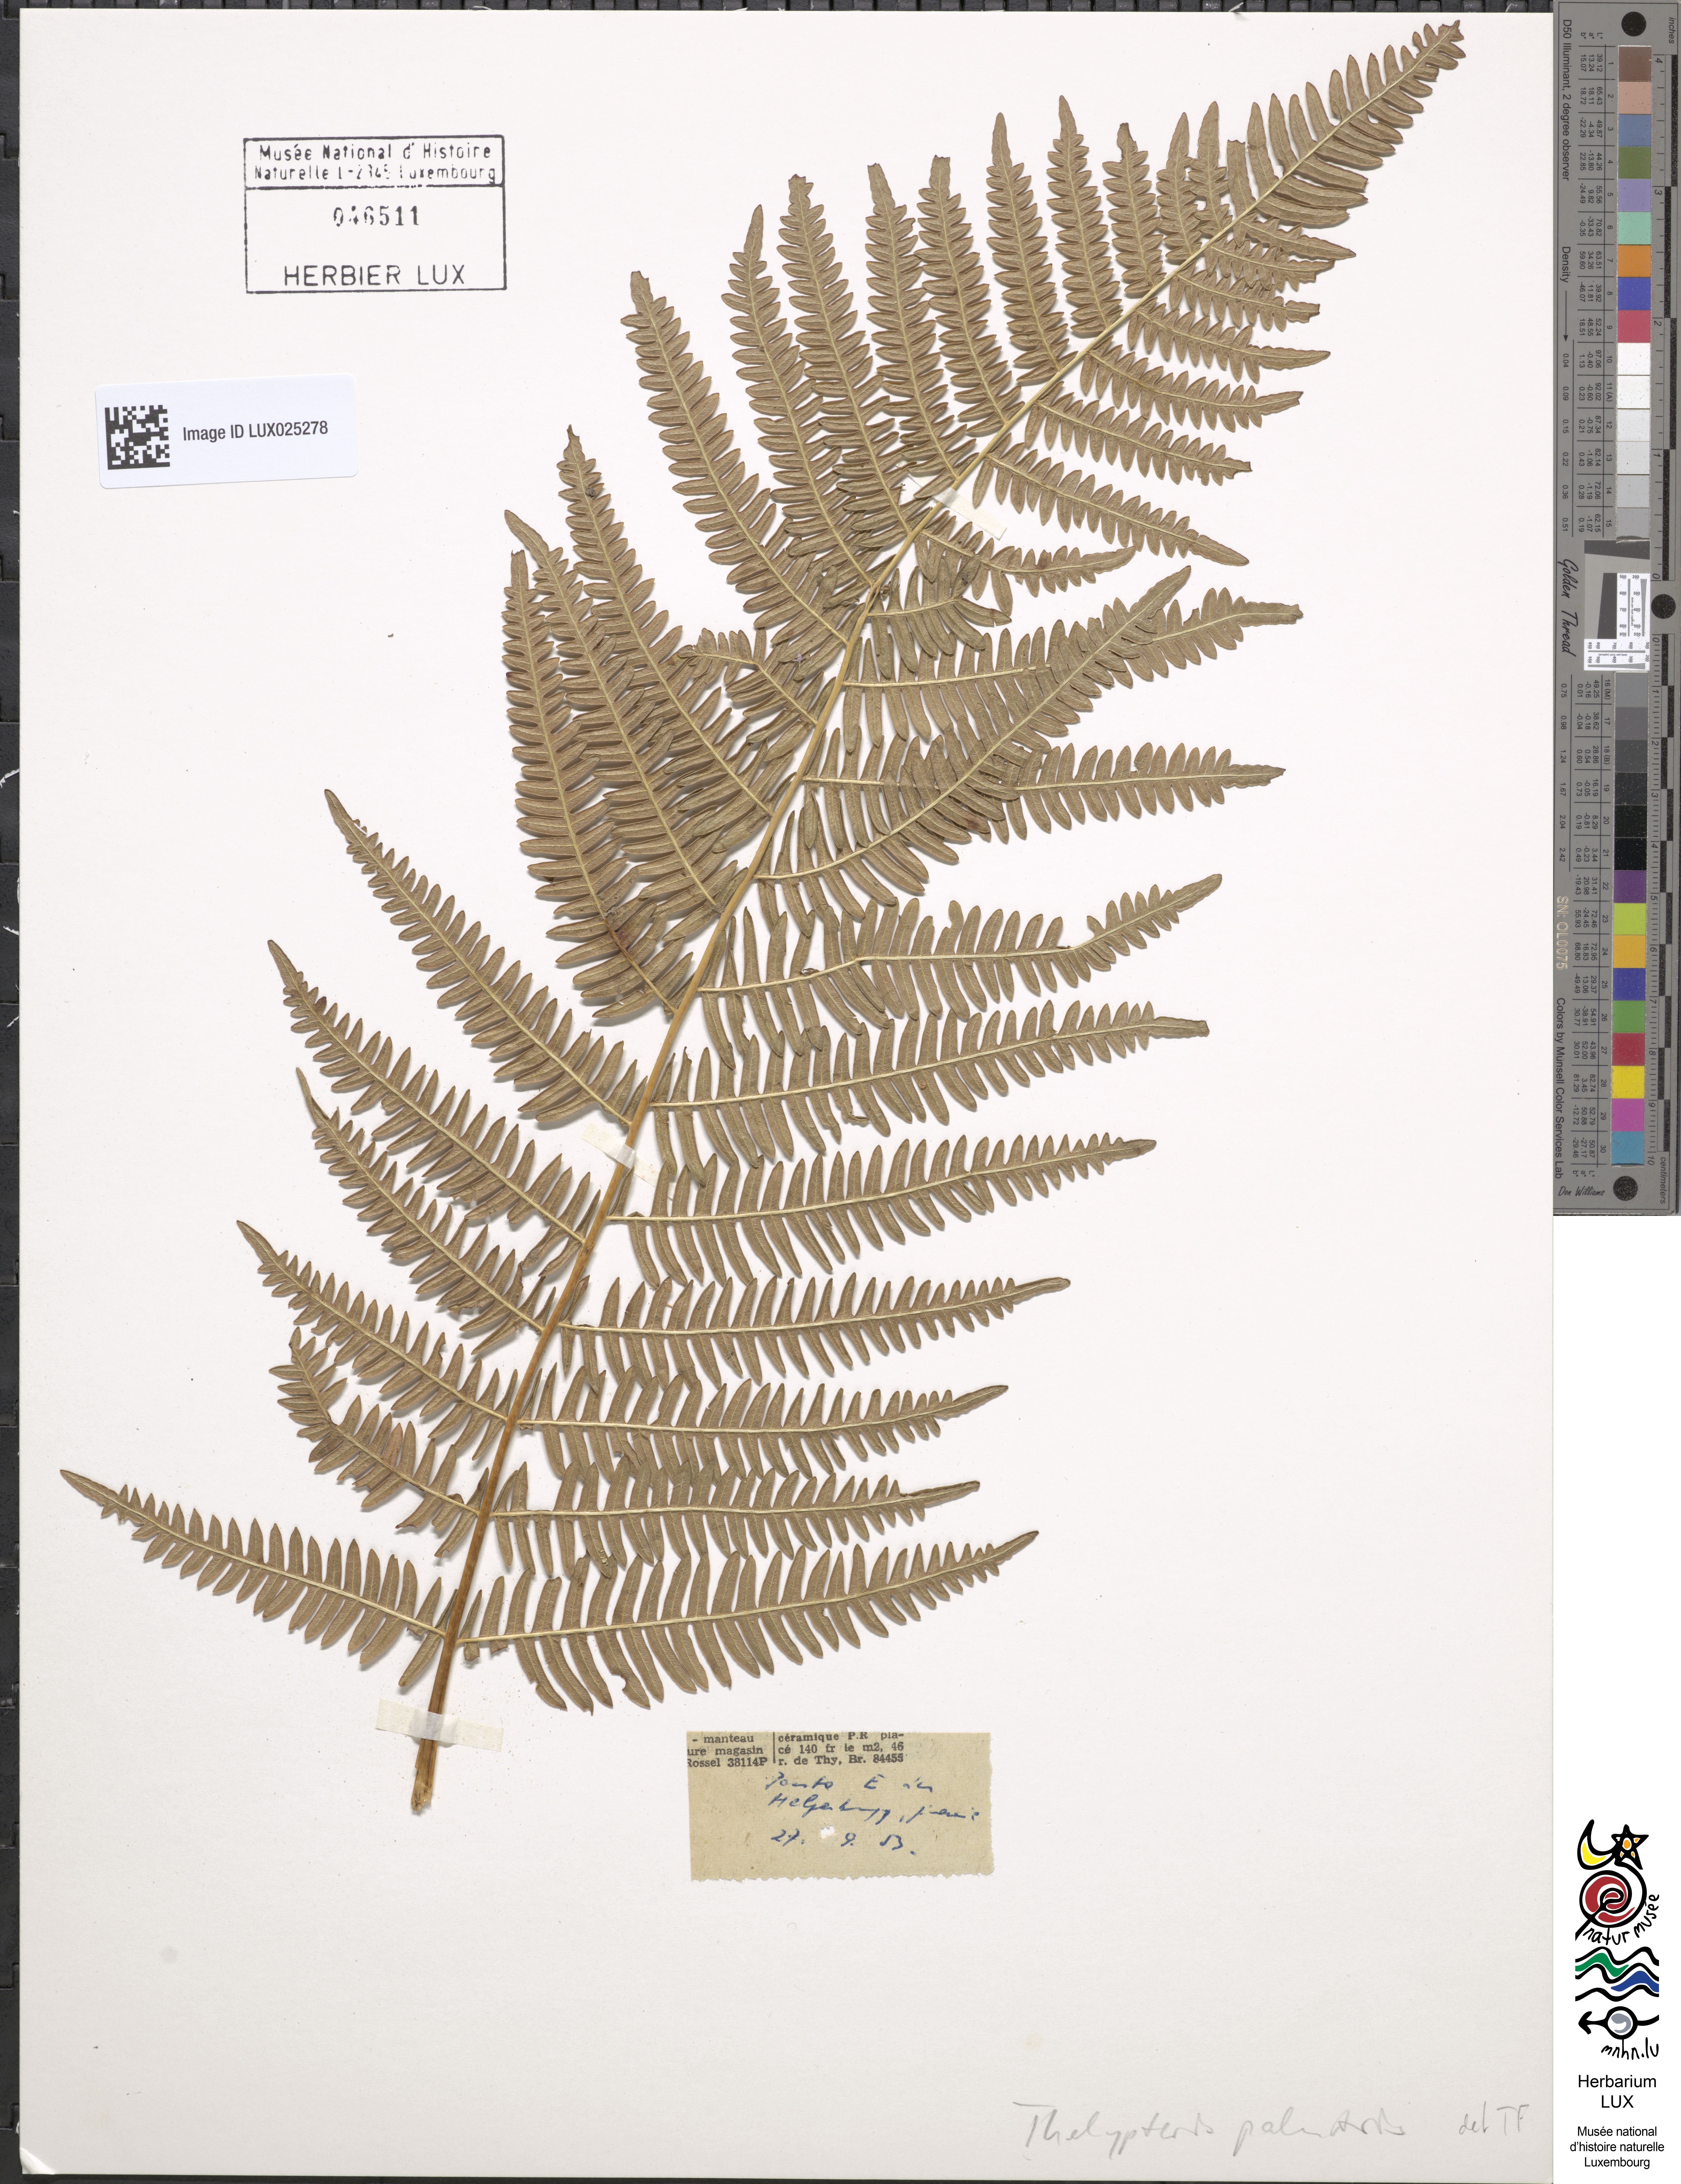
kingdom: Plantae
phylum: Tracheophyta
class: Polypodiopsida
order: Polypodiales
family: Thelypteridaceae
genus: Thelypteris
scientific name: Thelypteris palustris
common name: Marsh fern
